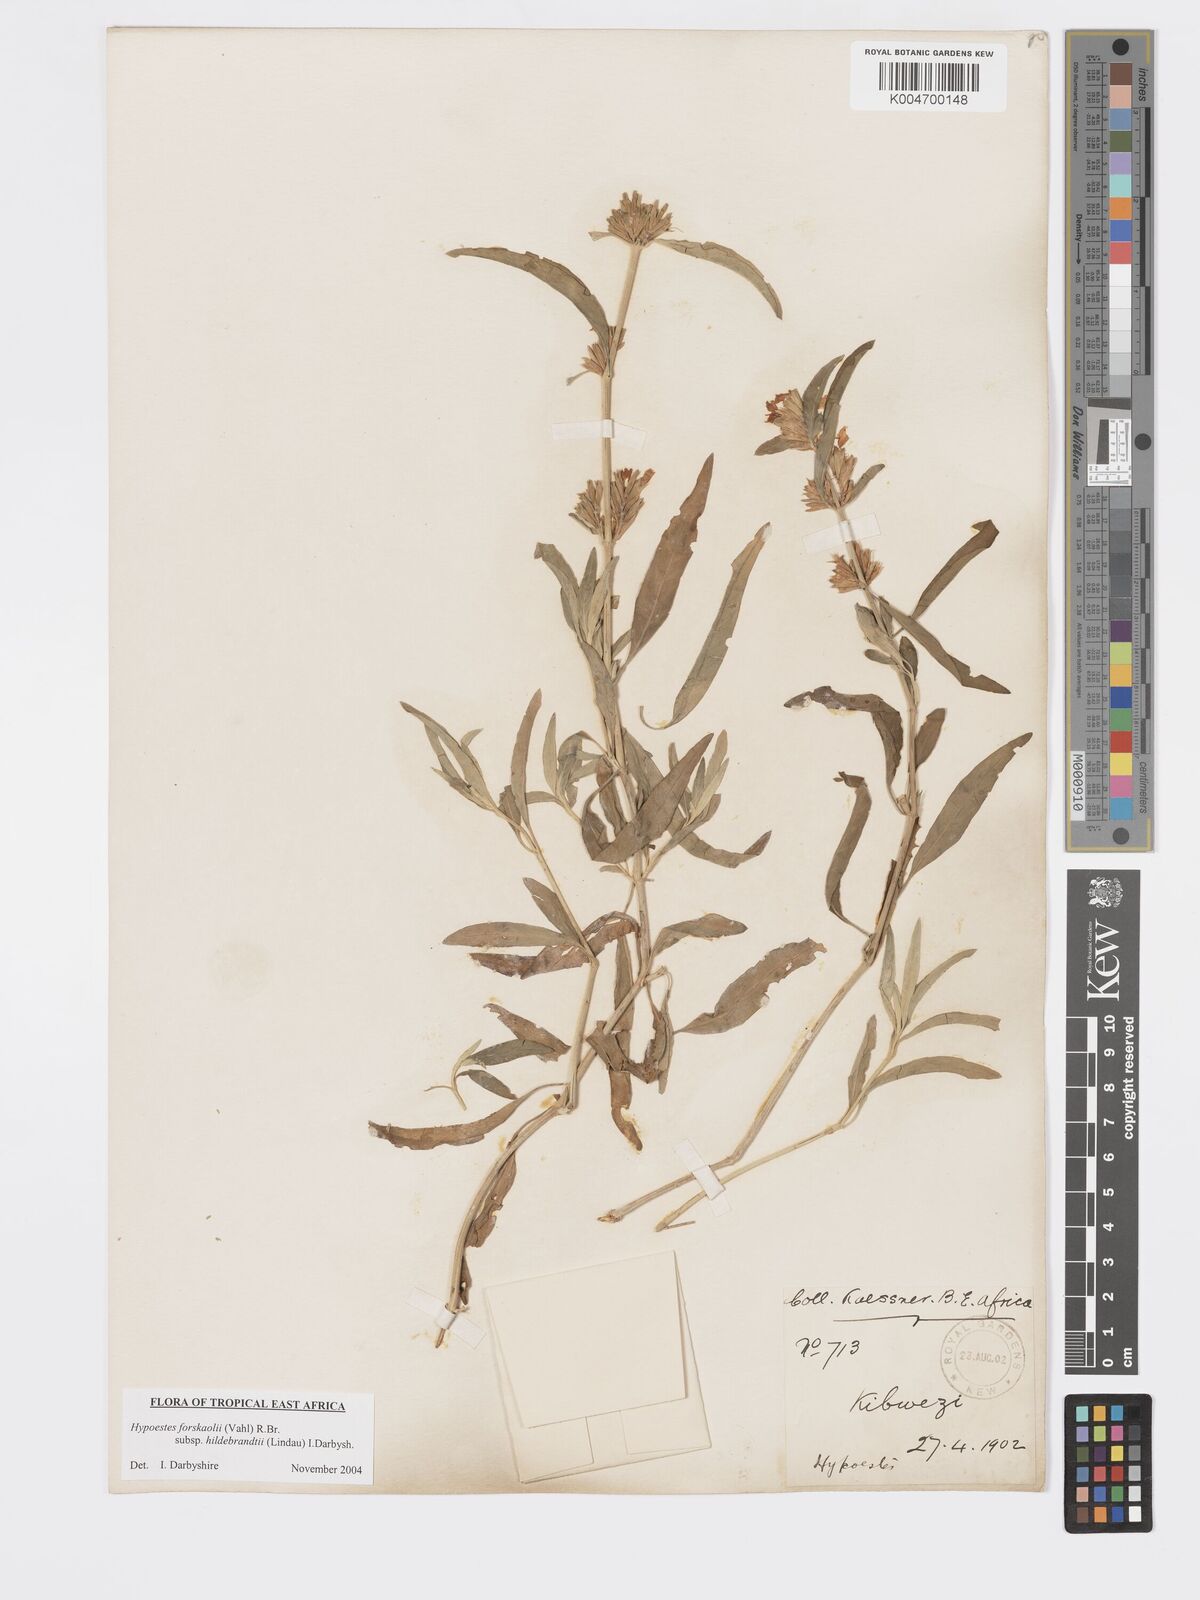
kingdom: Plantae
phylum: Tracheophyta
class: Magnoliopsida
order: Lamiales
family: Acanthaceae
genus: Hypoestes
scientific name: Hypoestes forskaolii
